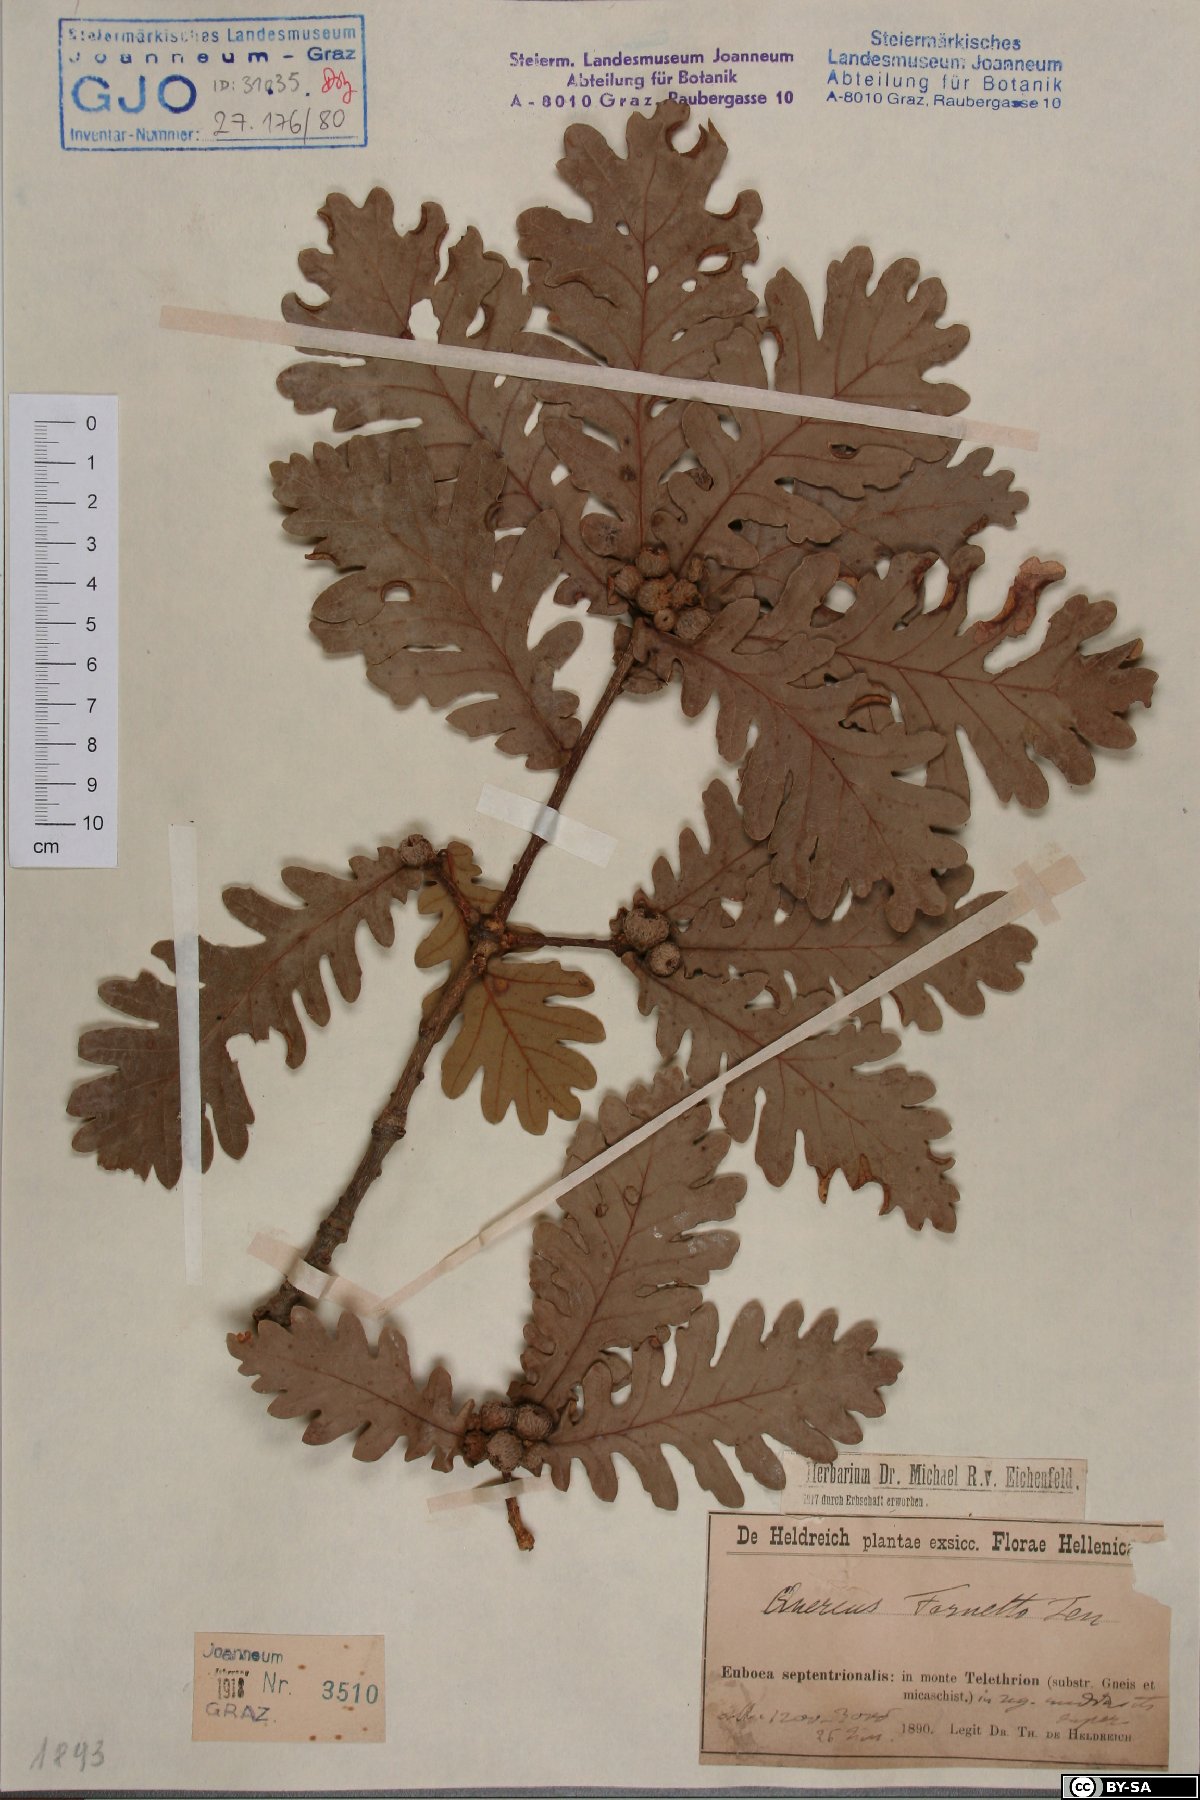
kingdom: Plantae
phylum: Tracheophyta
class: Magnoliopsida
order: Fagales
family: Fagaceae
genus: Quercus
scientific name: Quercus conferta
